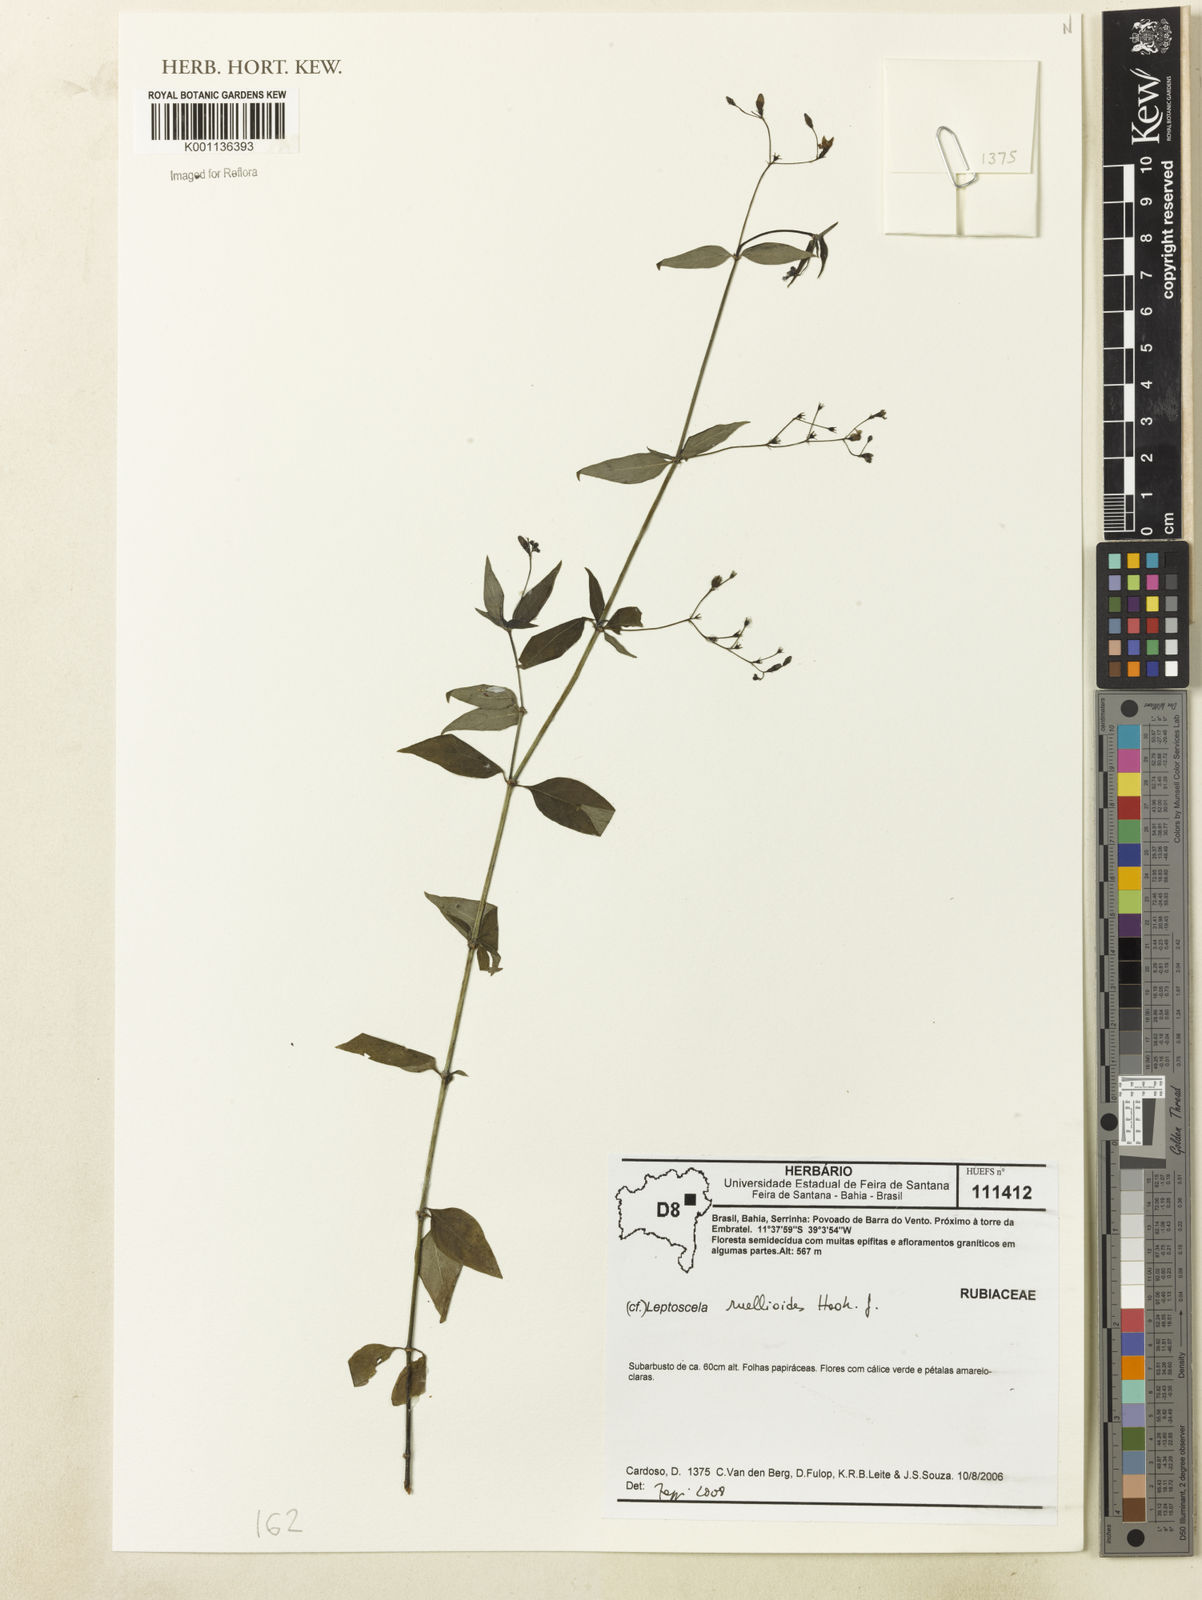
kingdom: Plantae
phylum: Tracheophyta
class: Magnoliopsida
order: Gentianales
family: Rubiaceae
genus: Leptoscela
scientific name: Leptoscela ruellioides
